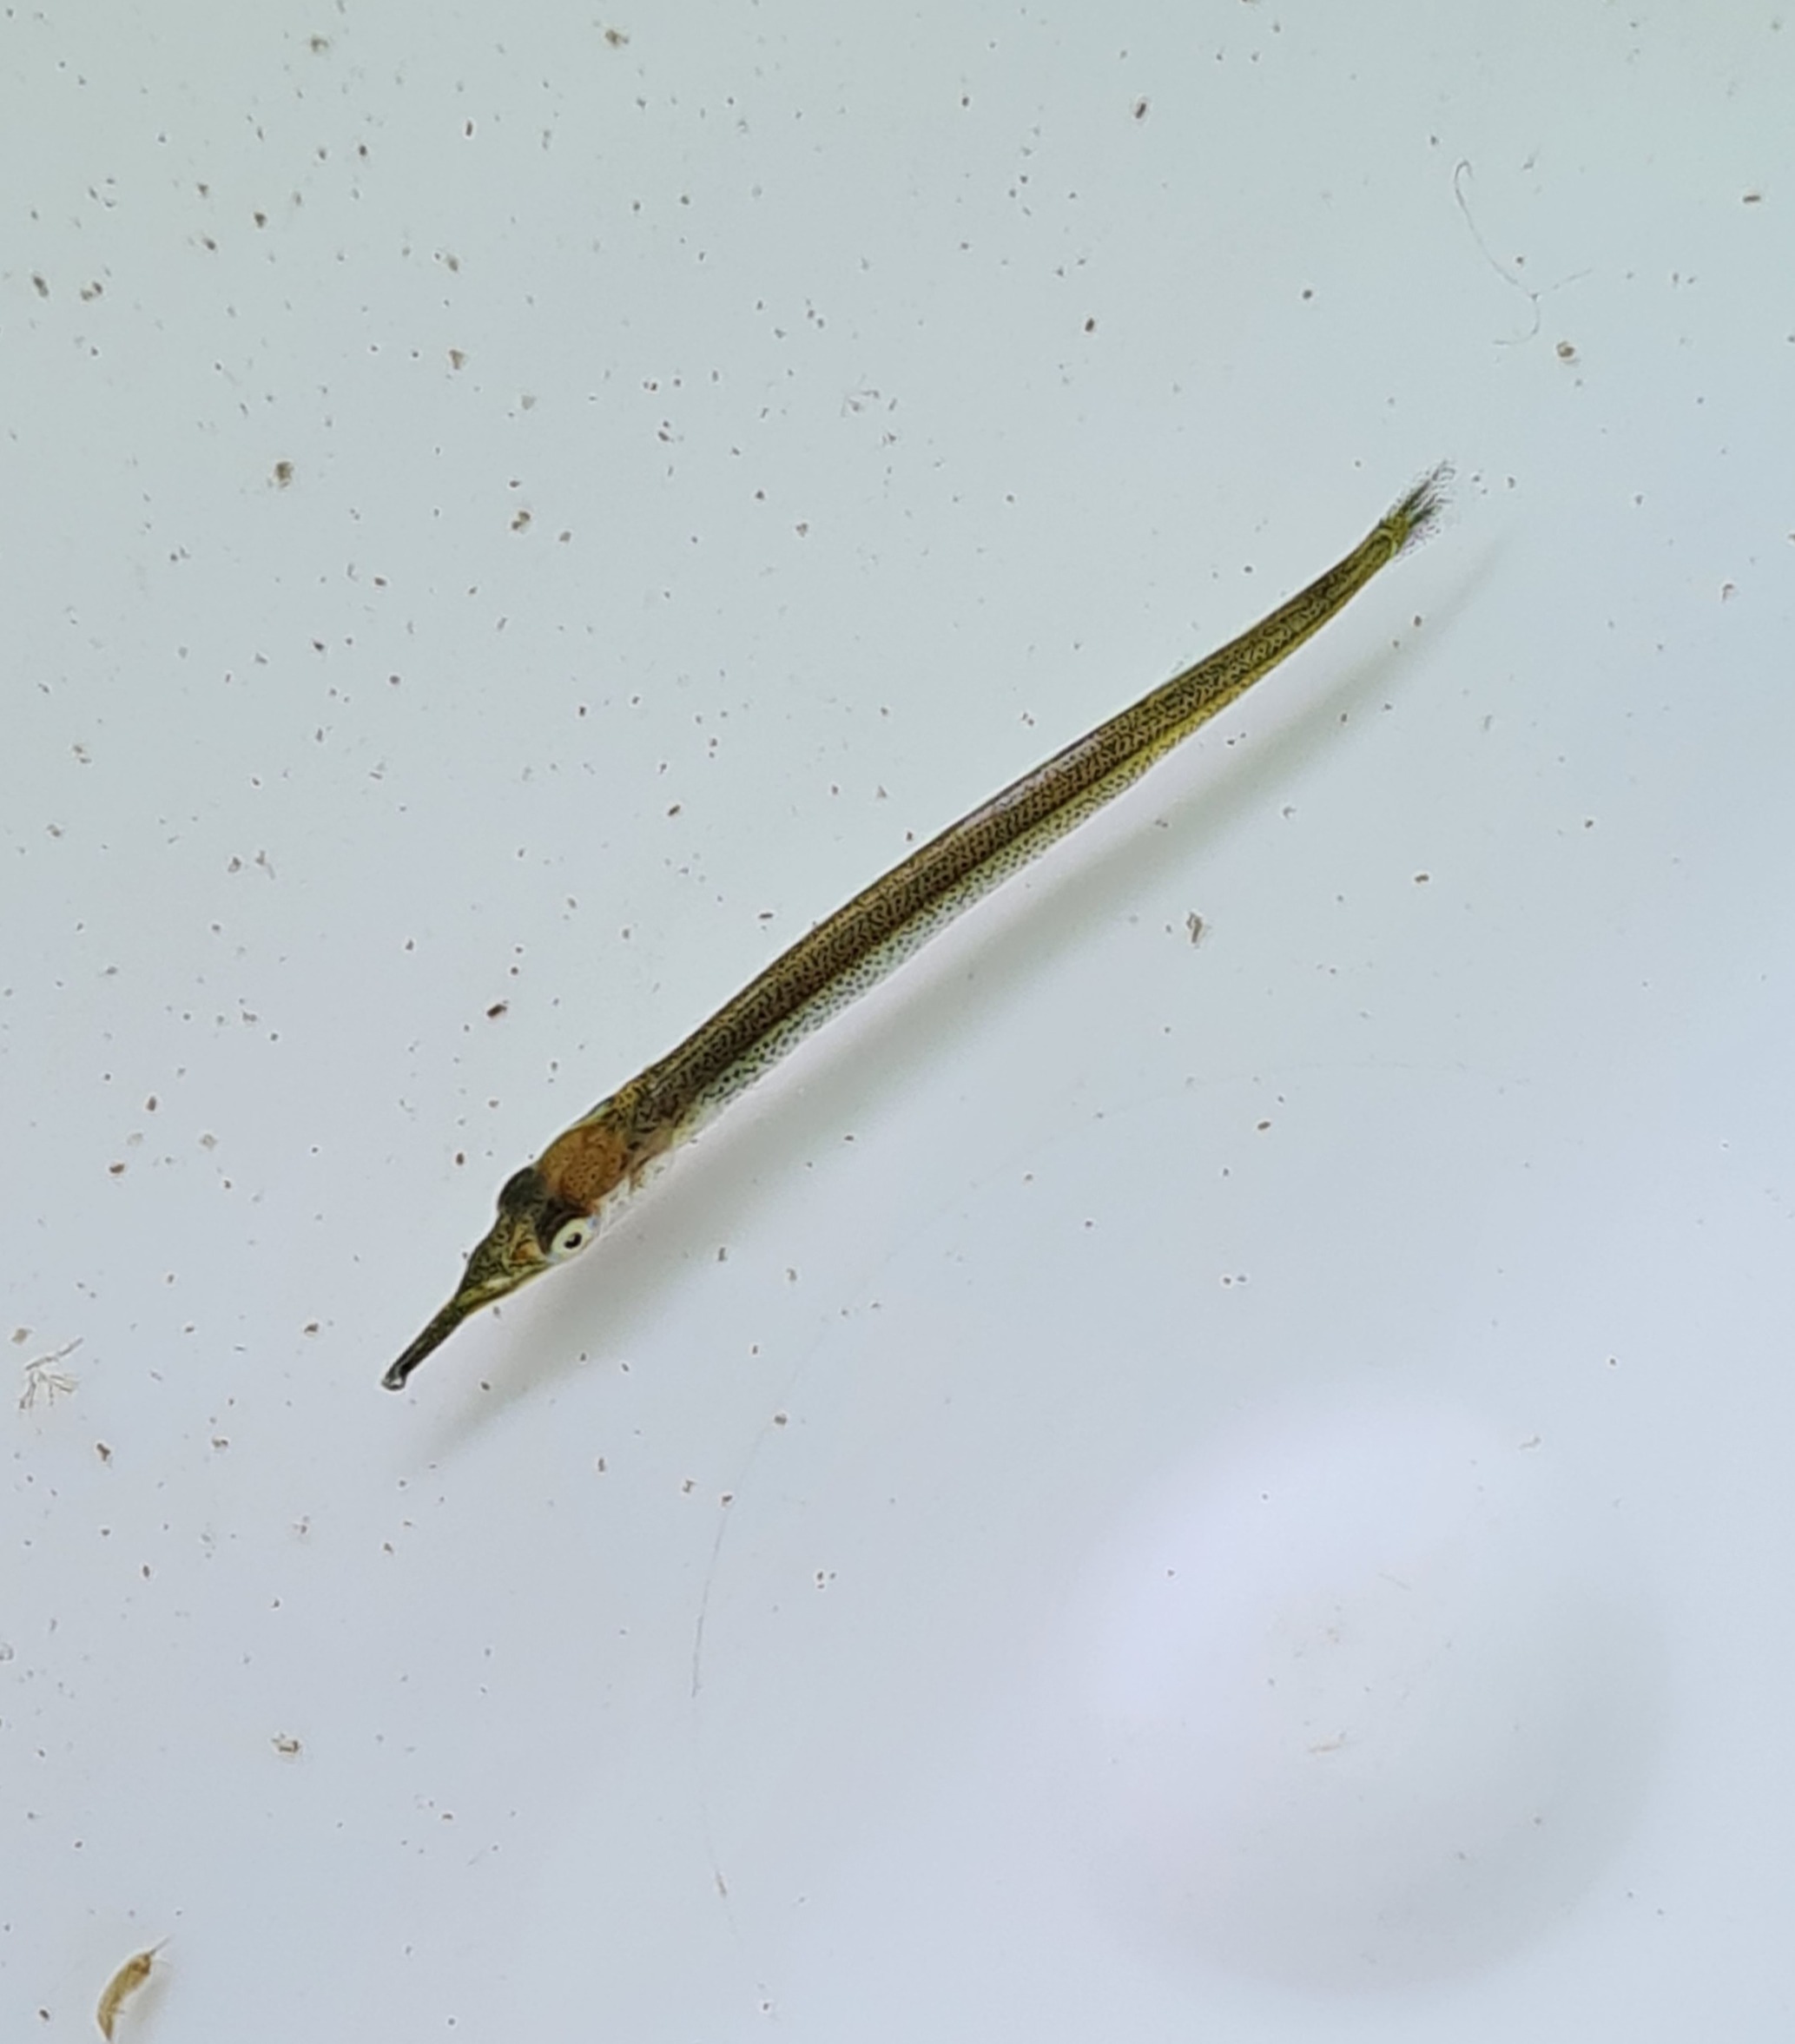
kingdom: Animalia
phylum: Chordata
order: Beloniformes
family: Belonidae
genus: Belone
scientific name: Belone belone
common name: Hornfisk
